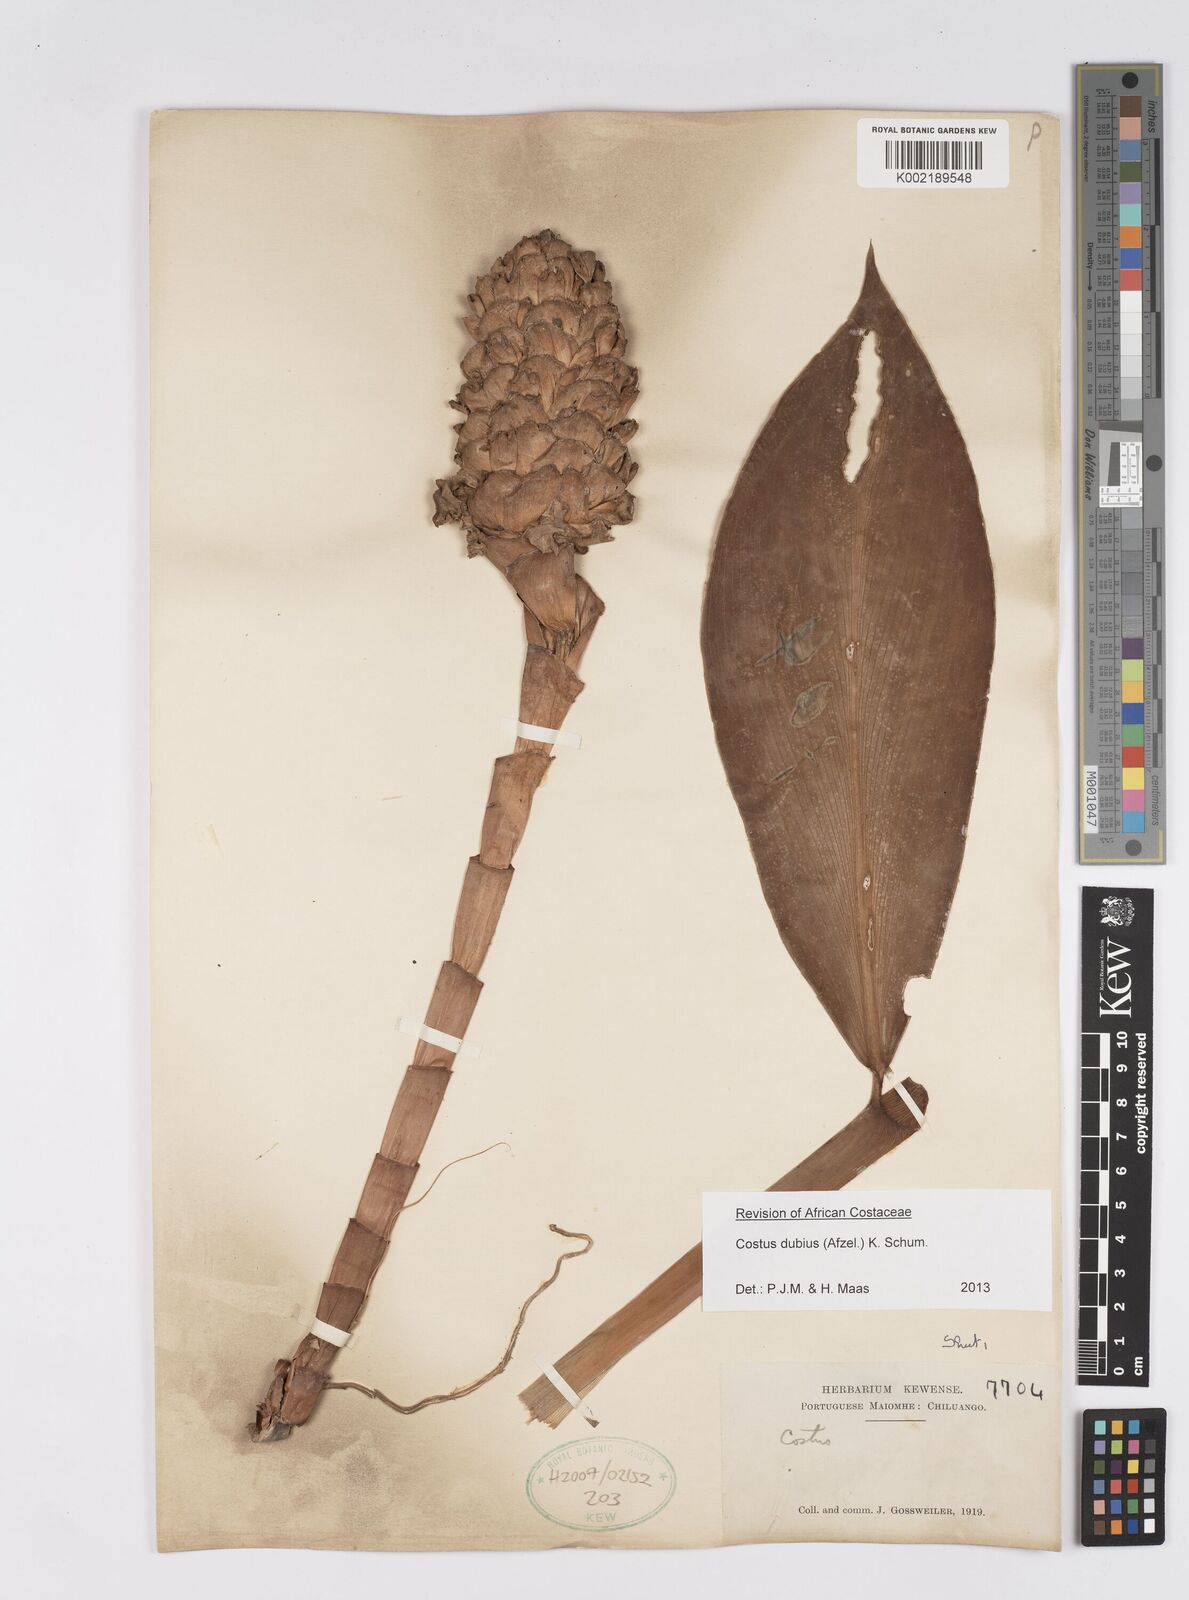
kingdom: Plantae
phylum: Tracheophyta
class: Liliopsida
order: Zingiberales
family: Costaceae
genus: Costus
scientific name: Costus dubius
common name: Costus
